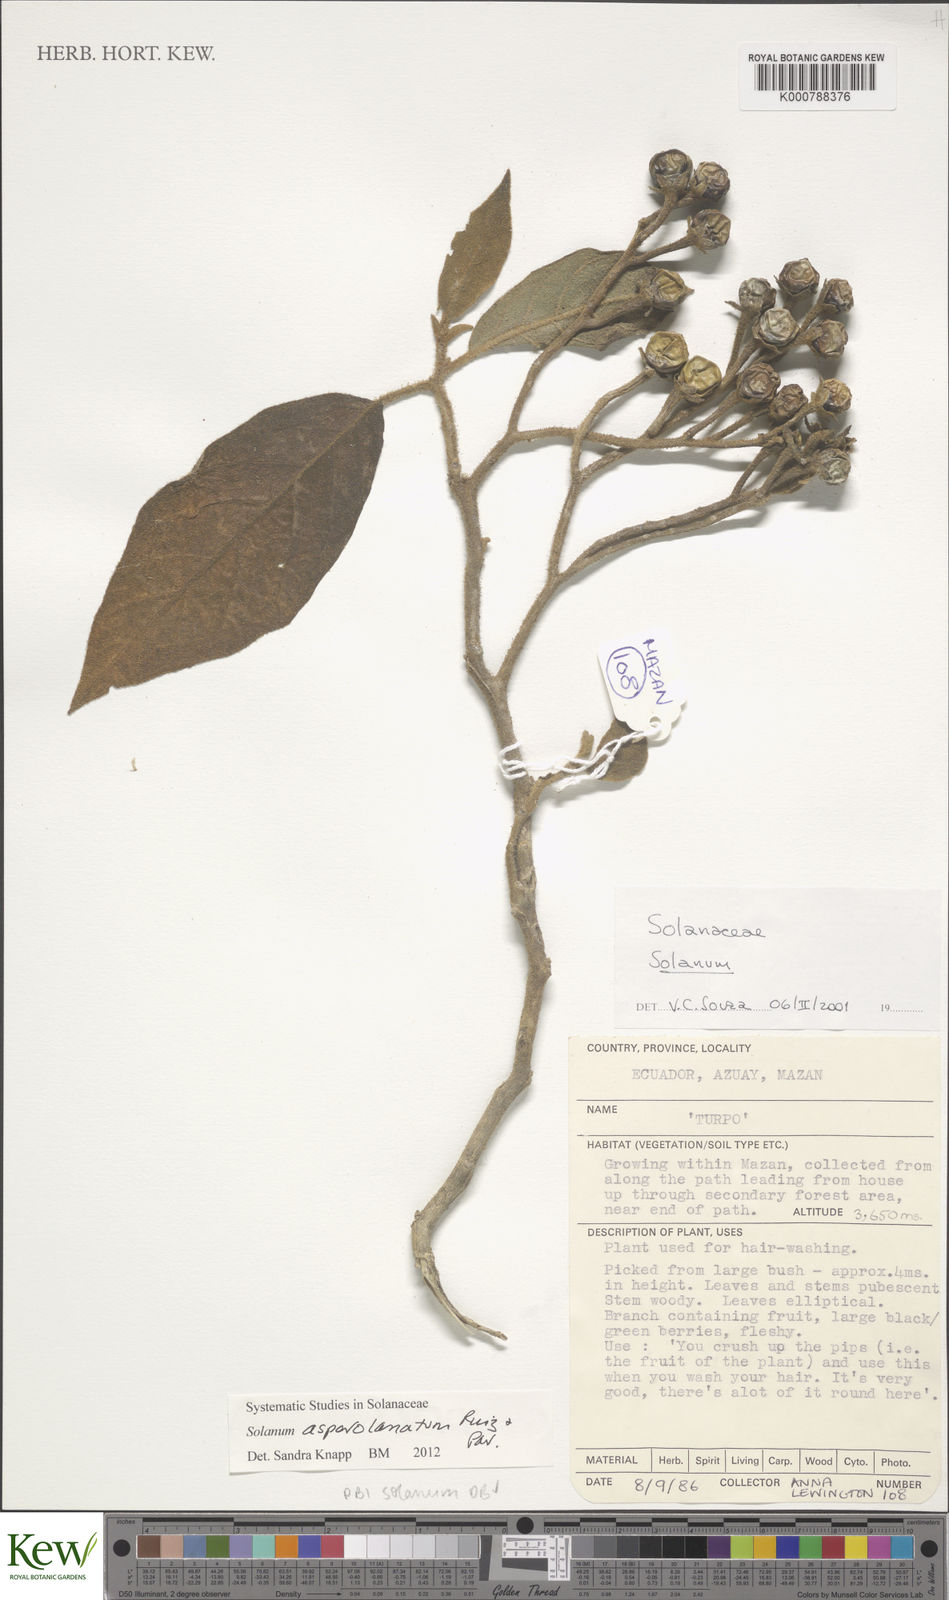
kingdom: Plantae
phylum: Tracheophyta
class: Magnoliopsida
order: Solanales
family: Solanaceae
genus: Solanum
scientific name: Solanum asperolanatum
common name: Devil's-fig
